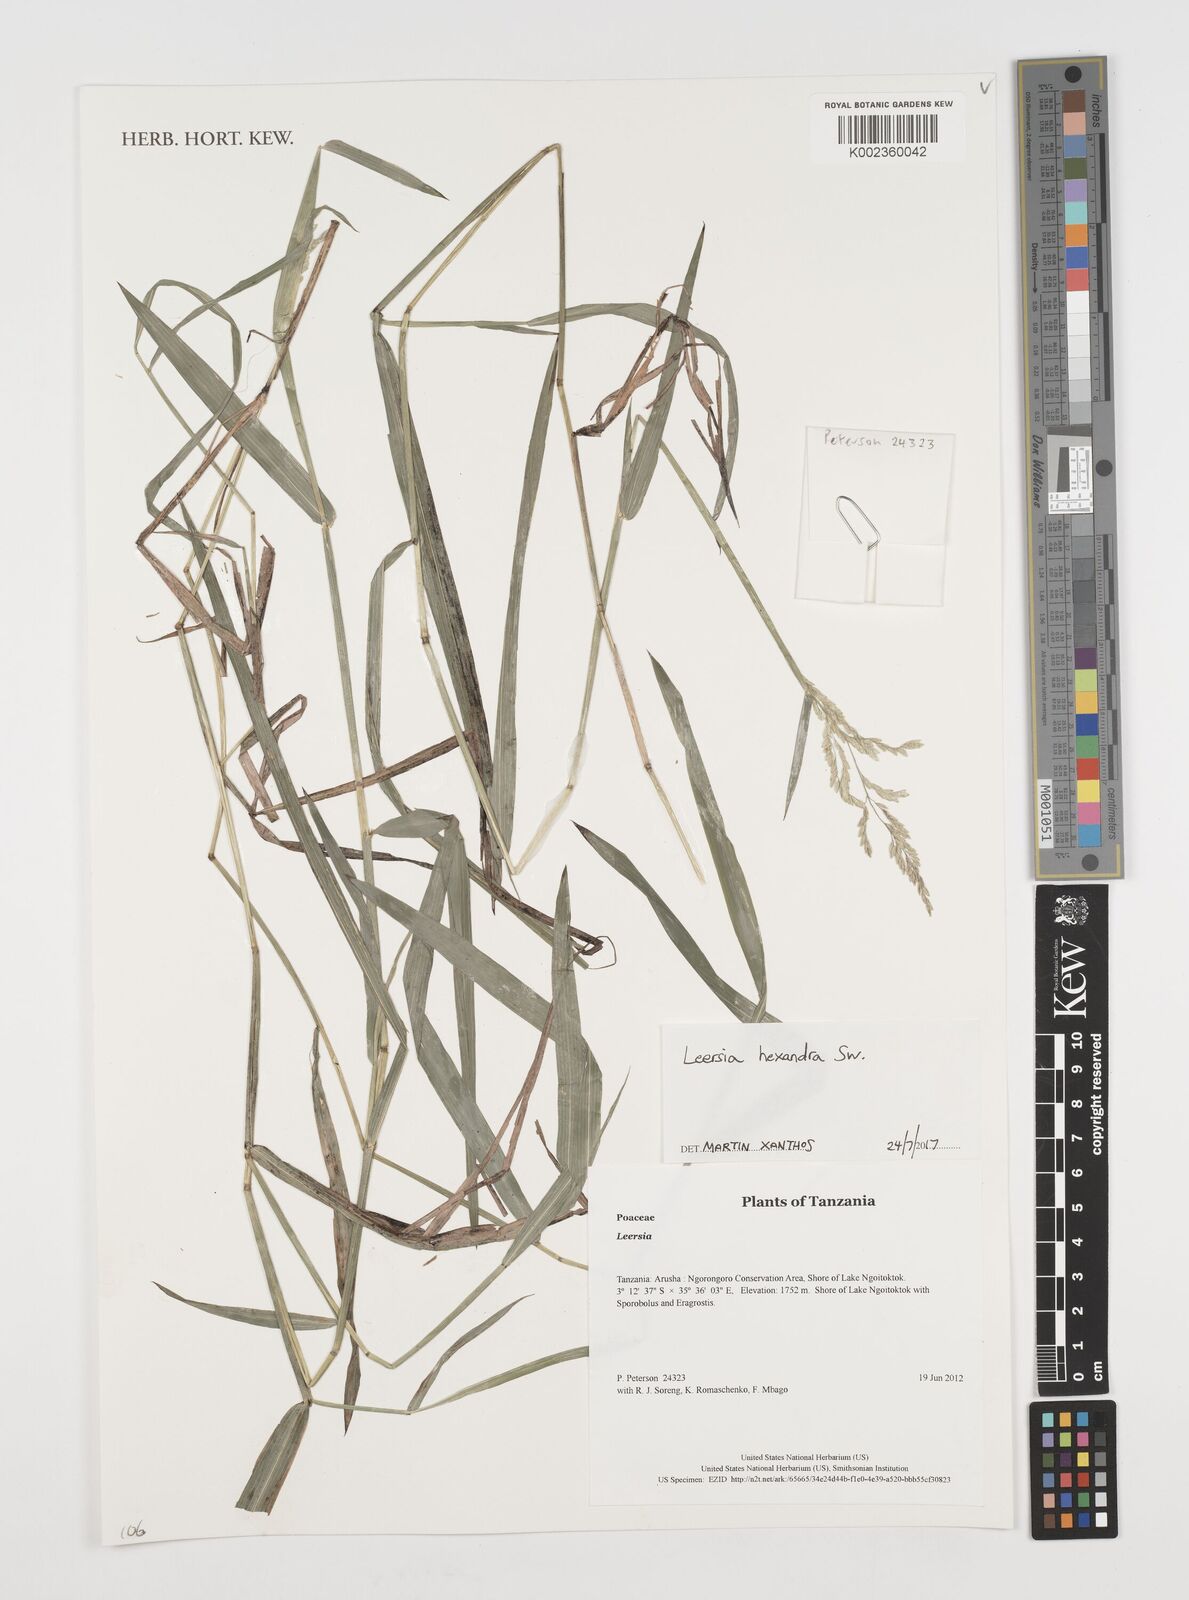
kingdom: Plantae
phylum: Tracheophyta
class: Liliopsida
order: Poales
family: Poaceae
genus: Leersia
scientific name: Leersia hexandra
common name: Southern cut grass
